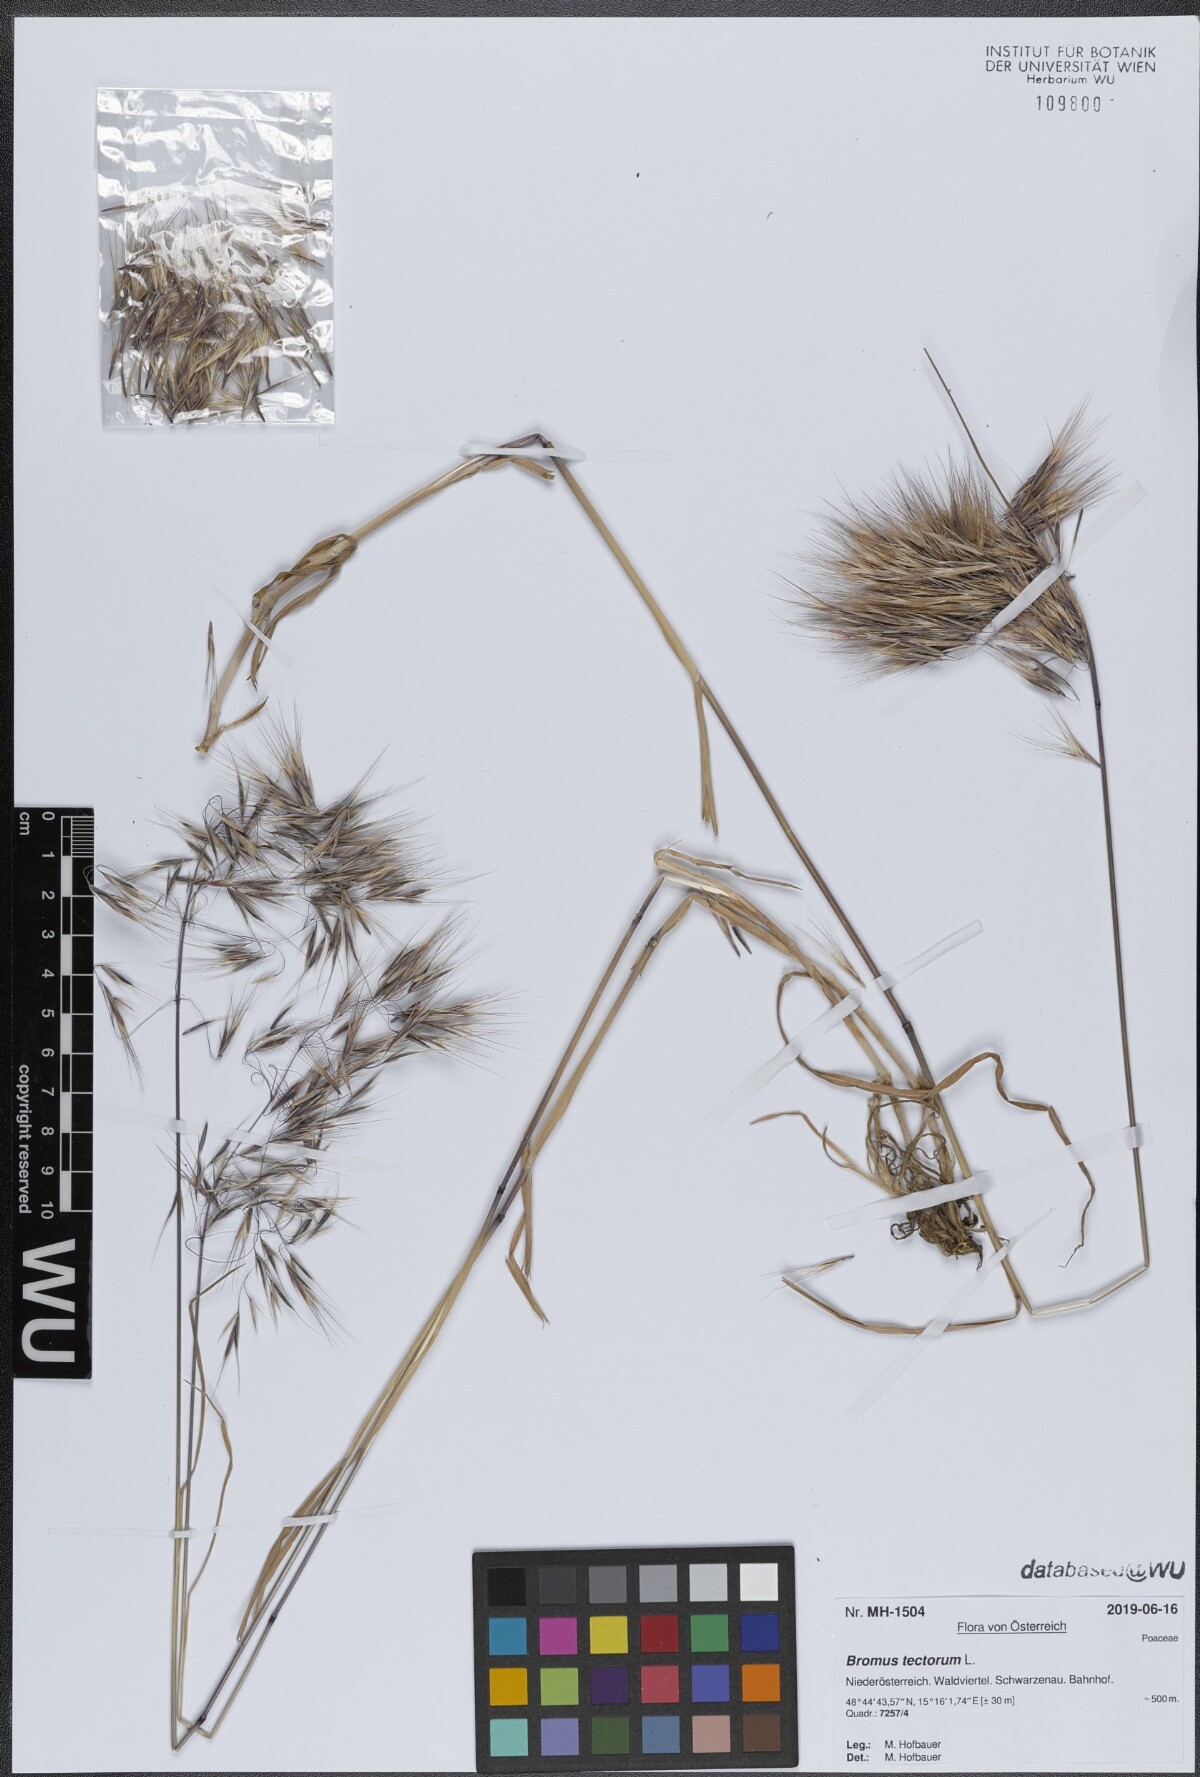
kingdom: Plantae
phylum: Tracheophyta
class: Liliopsida
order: Poales
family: Poaceae
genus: Bromus
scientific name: Bromus tectorum
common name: Cheatgrass
